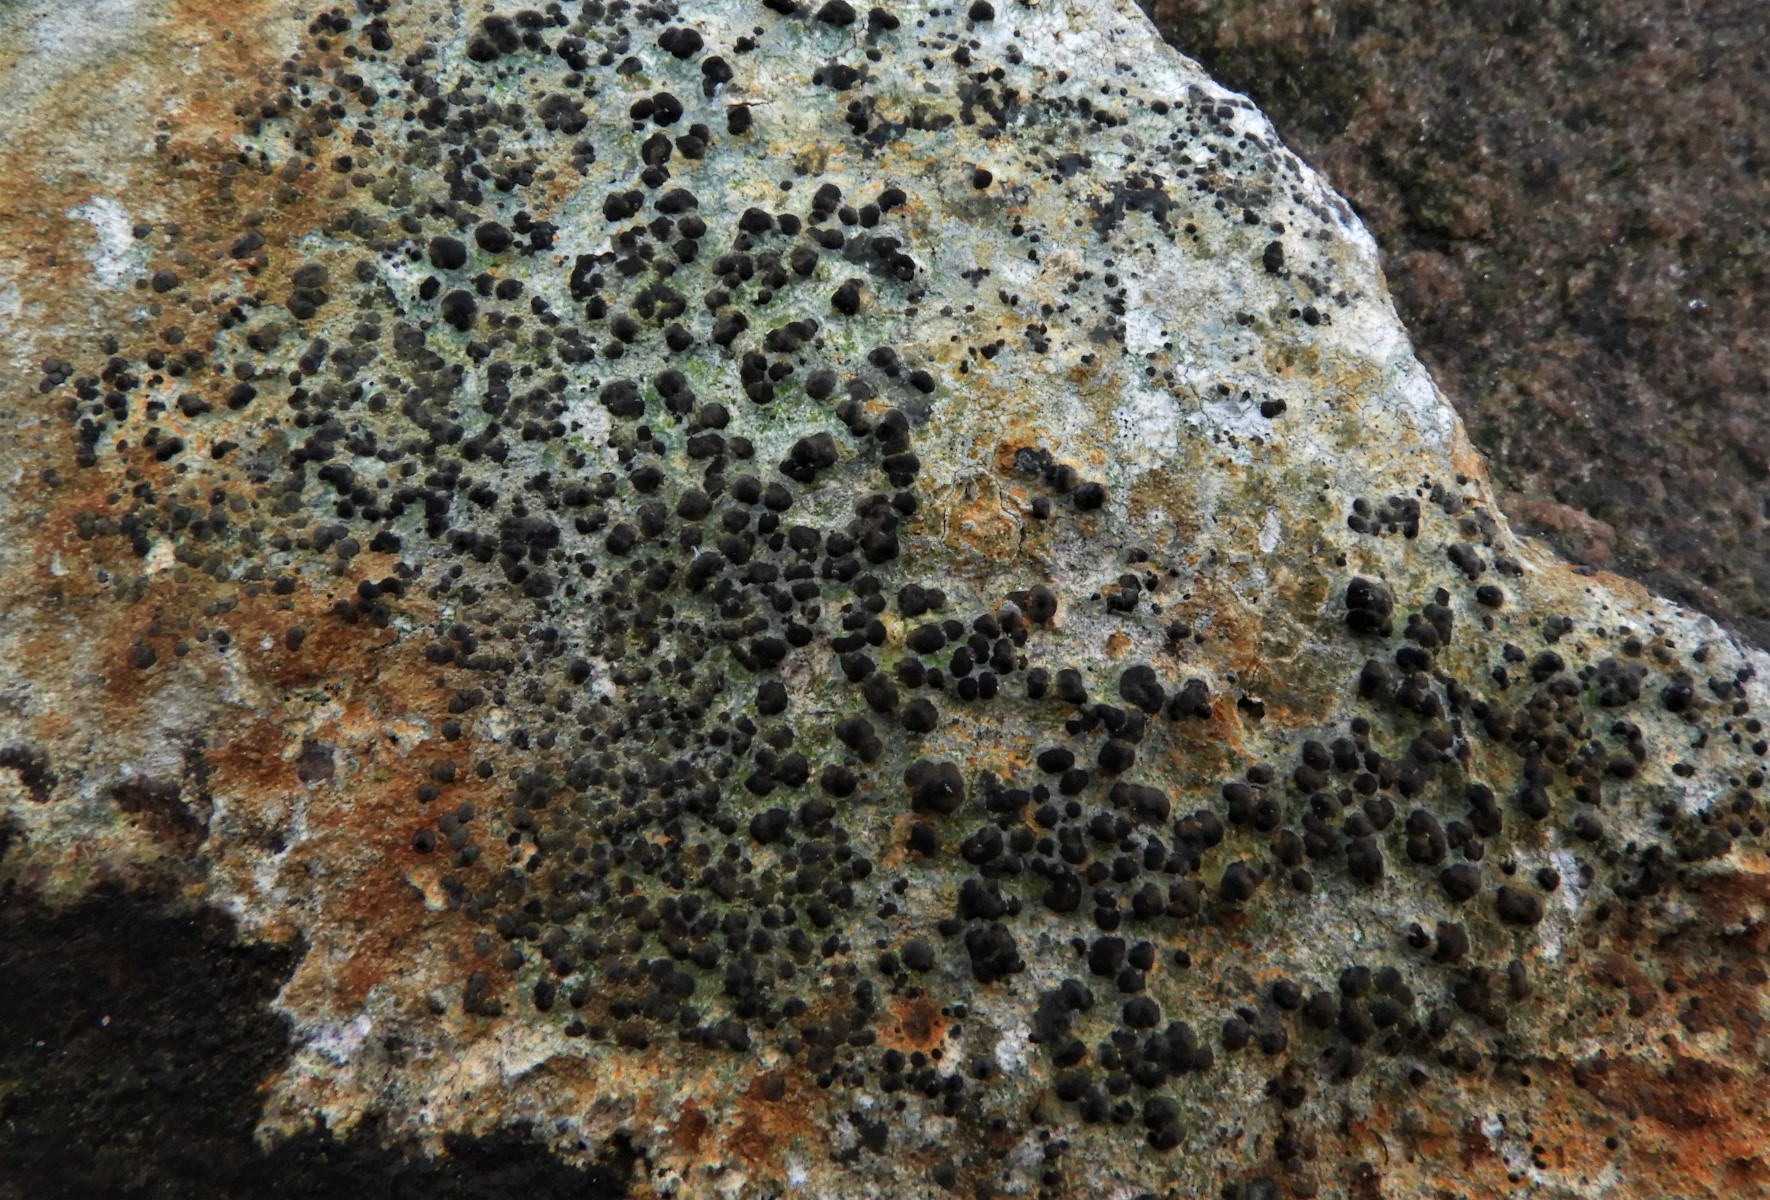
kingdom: Fungi
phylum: Ascomycota
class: Lecanoromycetes
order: Lecideales
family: Lecideaceae
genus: Porpidia
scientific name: Porpidia
